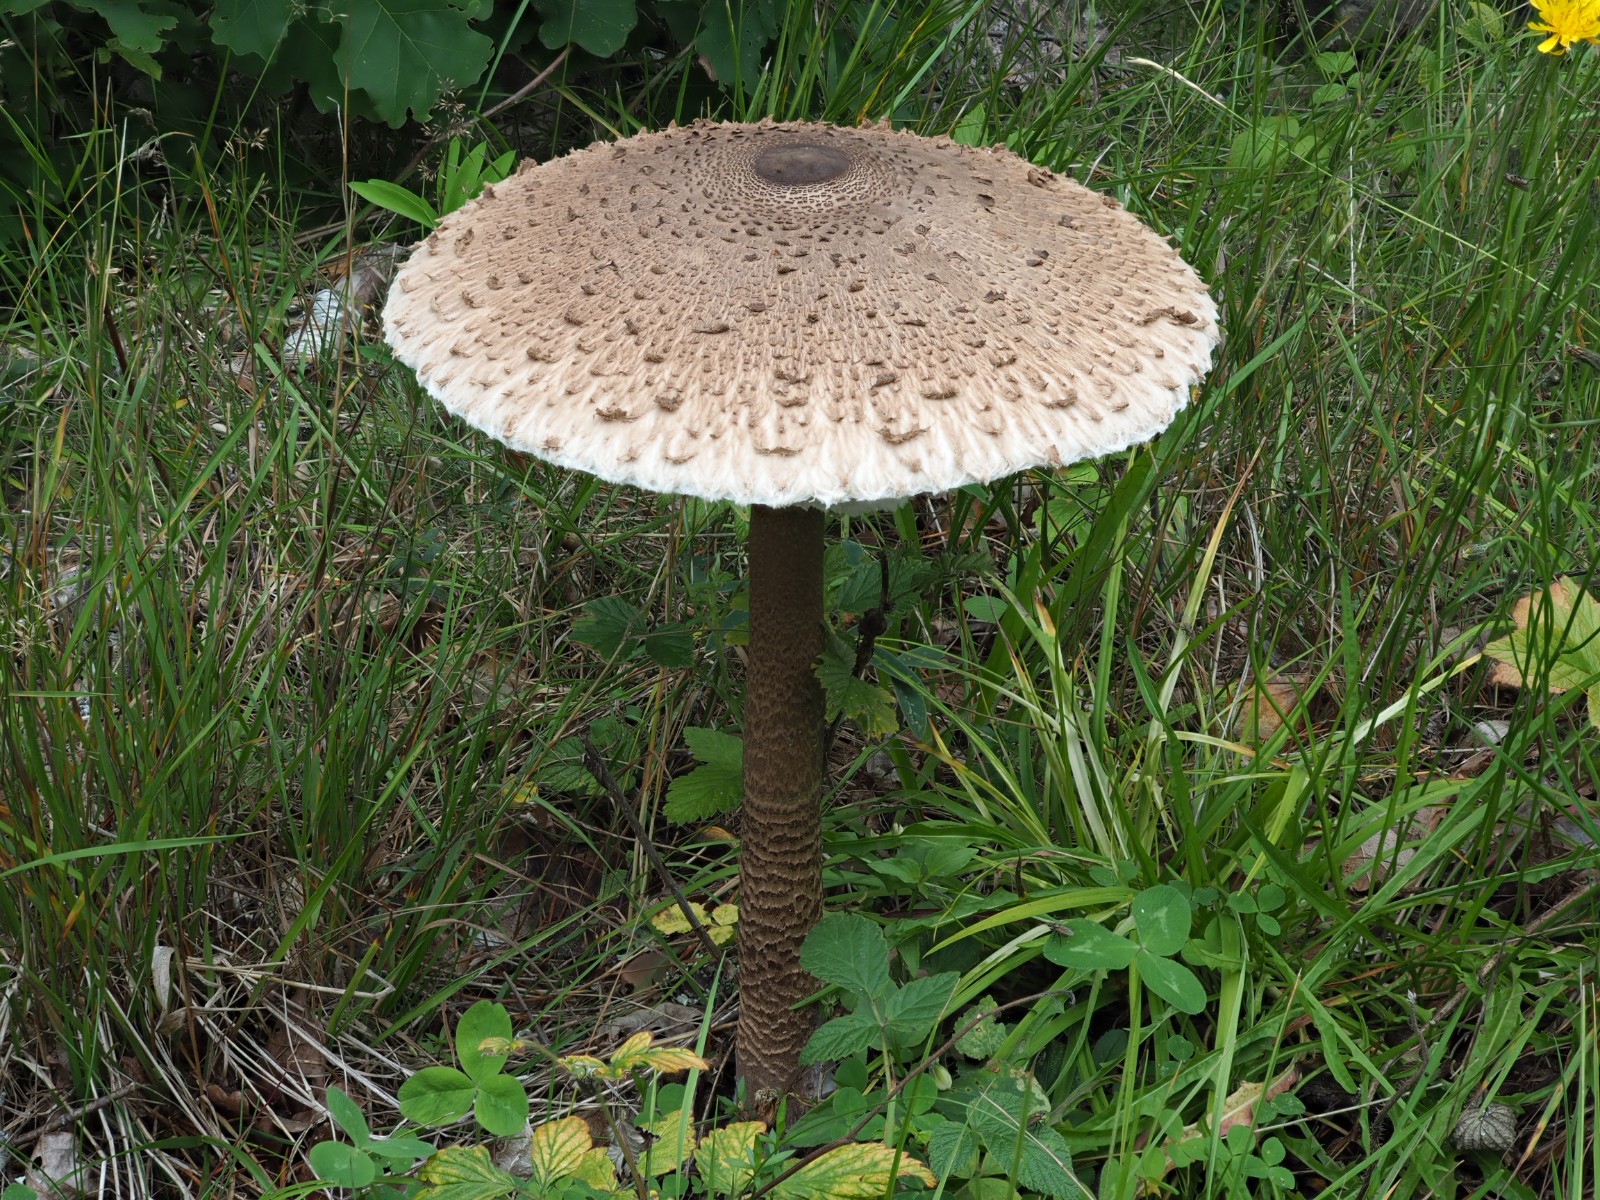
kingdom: Fungi
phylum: Basidiomycota
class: Agaricomycetes
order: Agaricales
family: Agaricaceae
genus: Macrolepiota
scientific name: Macrolepiota
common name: kæmpeparasolhat
